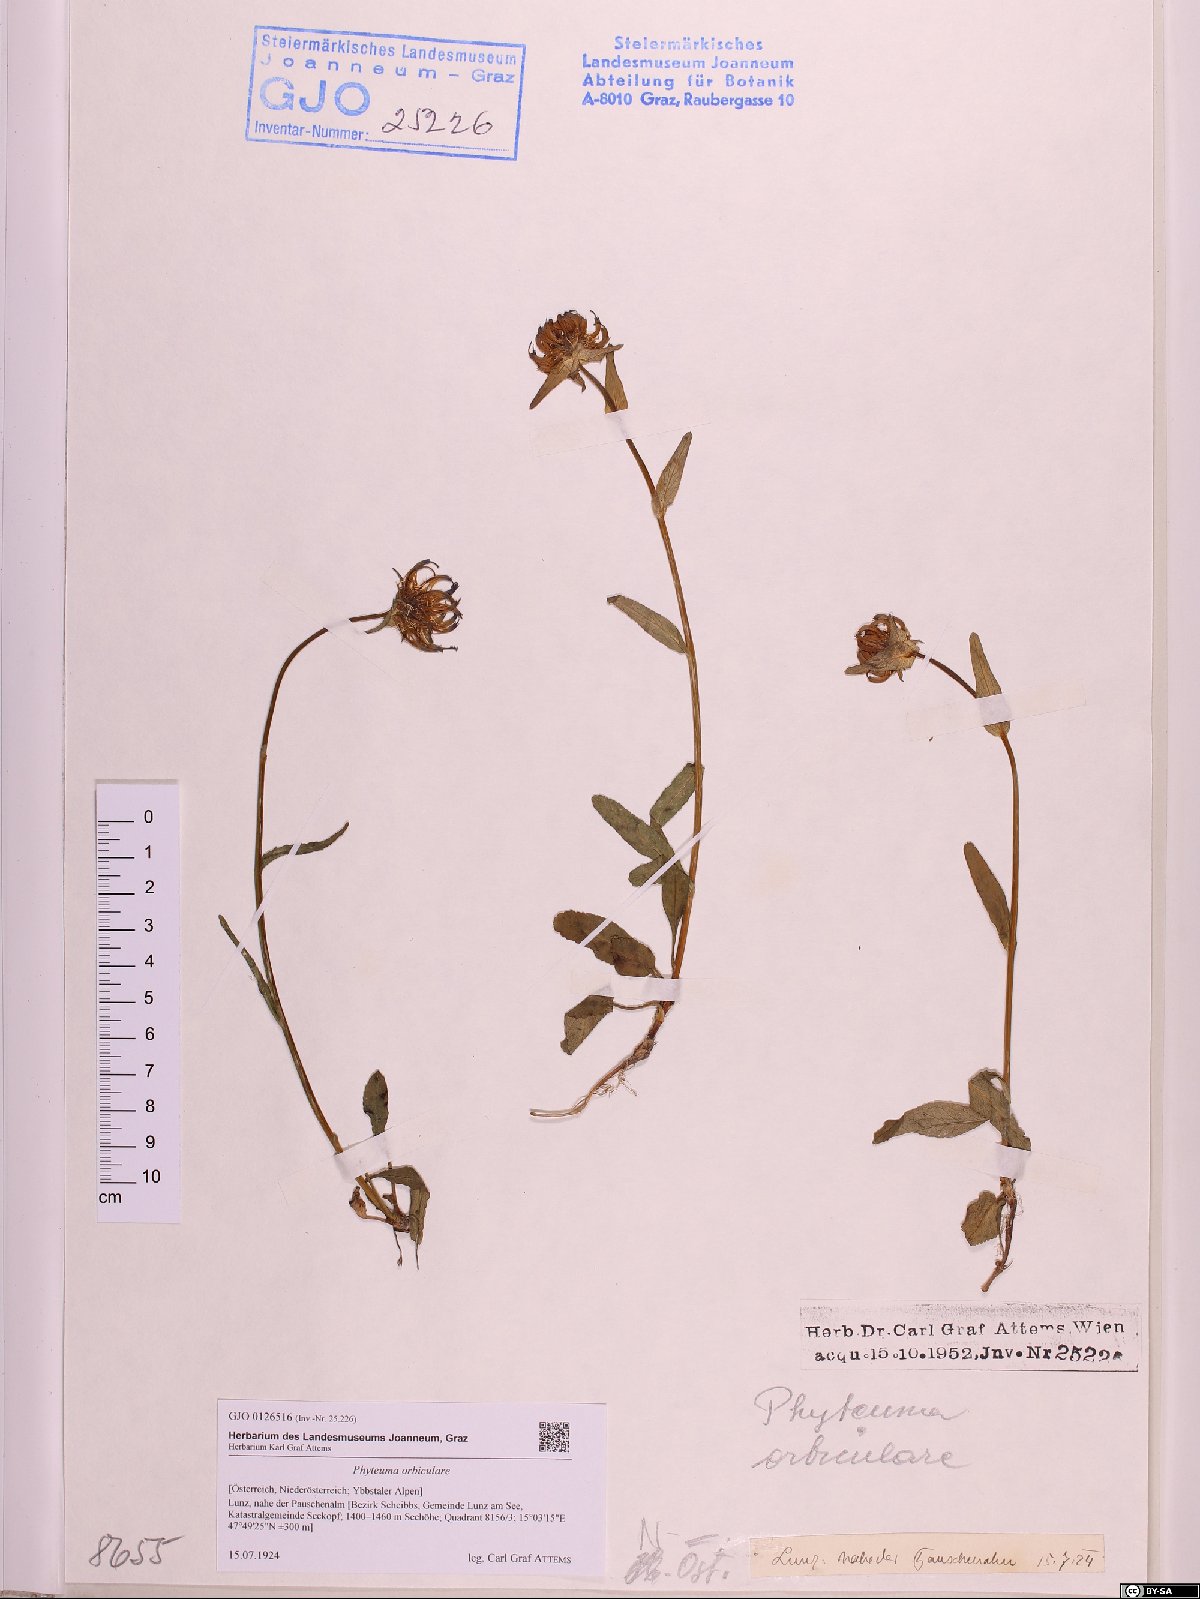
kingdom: Plantae
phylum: Tracheophyta
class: Magnoliopsida
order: Asterales
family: Campanulaceae
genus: Phyteuma
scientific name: Phyteuma orbiculare
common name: Round-headed rampion
